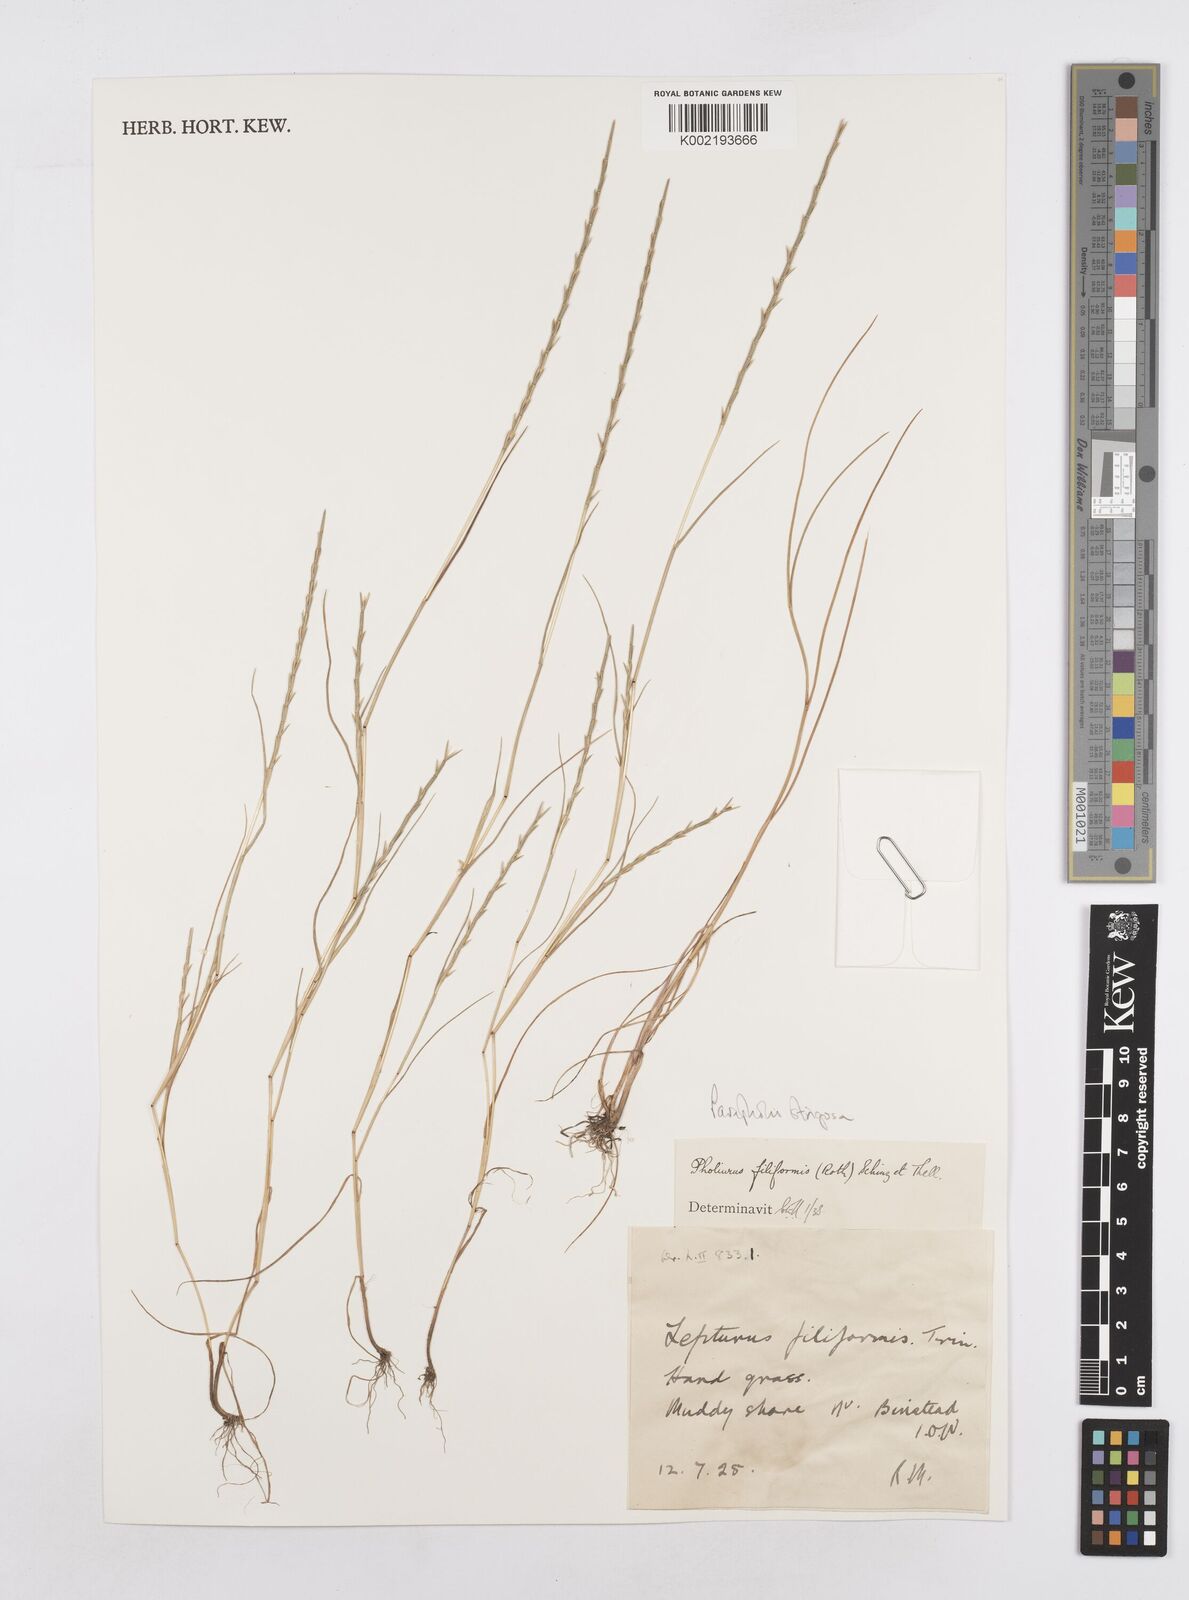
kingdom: Plantae
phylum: Tracheophyta
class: Liliopsida
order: Poales
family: Poaceae
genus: Parapholis
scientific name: Parapholis strigosa
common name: Hard-grass
